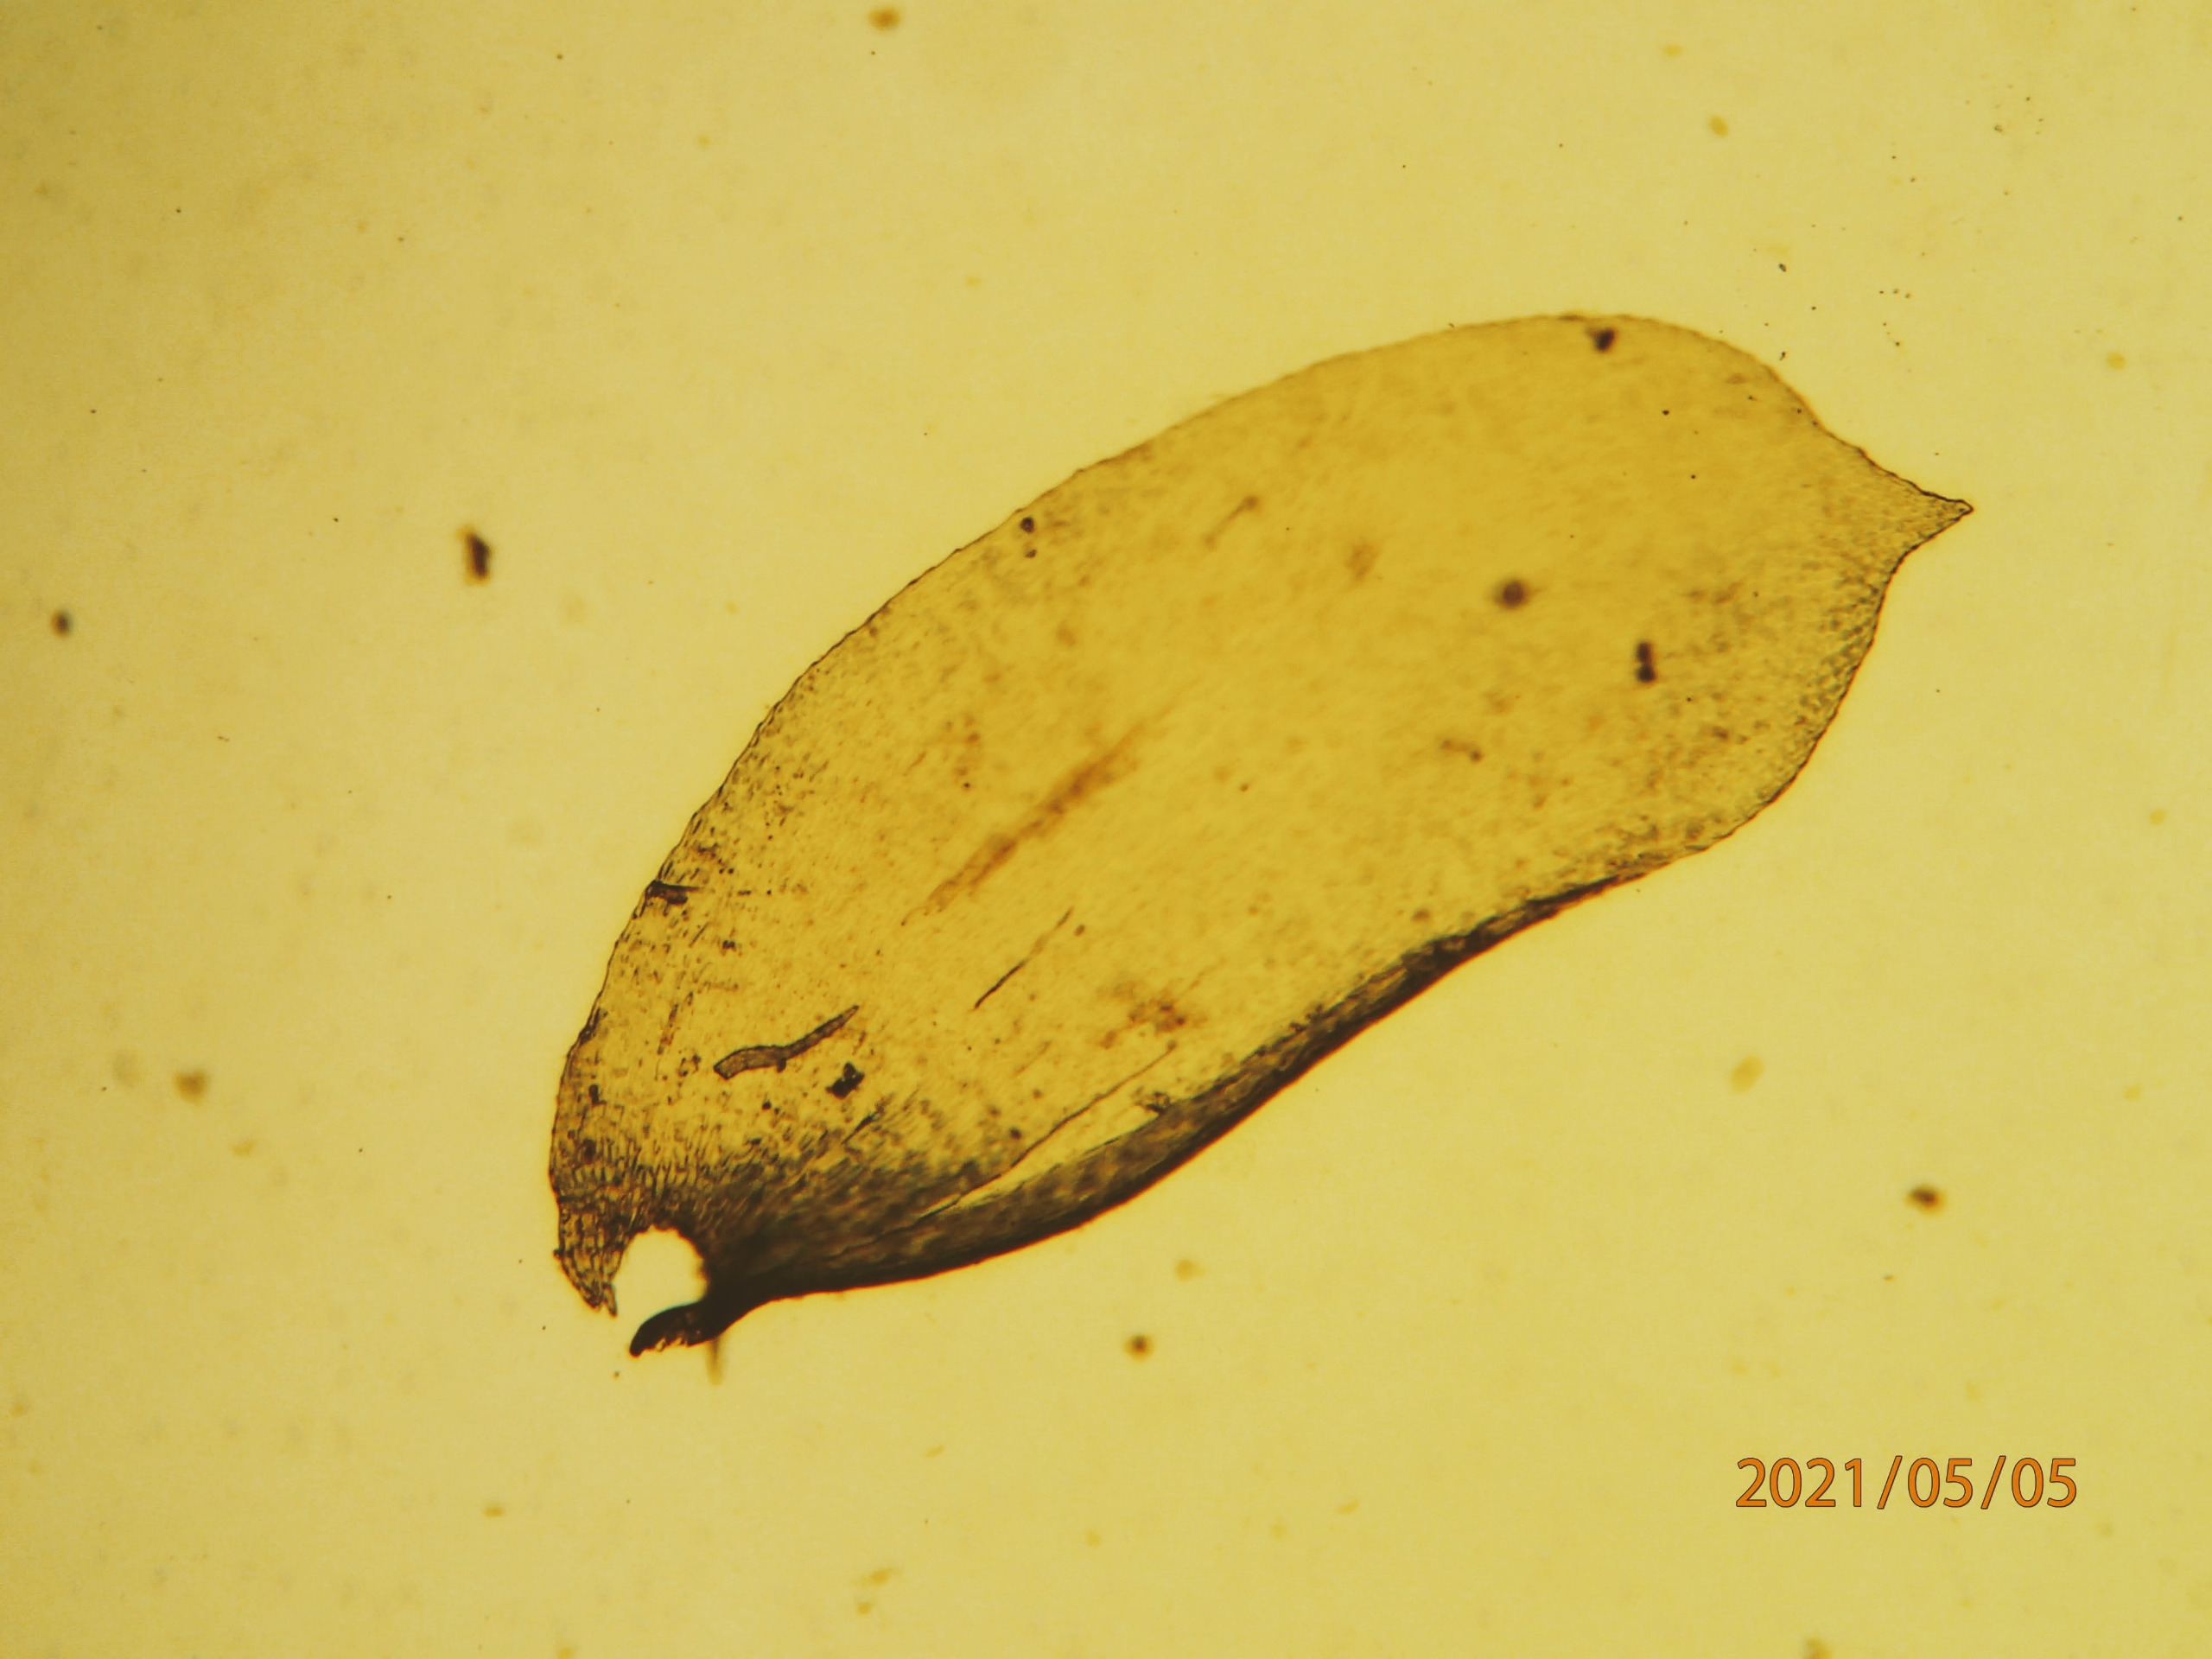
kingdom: Plantae
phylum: Bryophyta
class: Bryopsida
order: Hypnales
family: Neckeraceae
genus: Alleniella
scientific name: Alleniella complanata
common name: Almindelig fladmos
